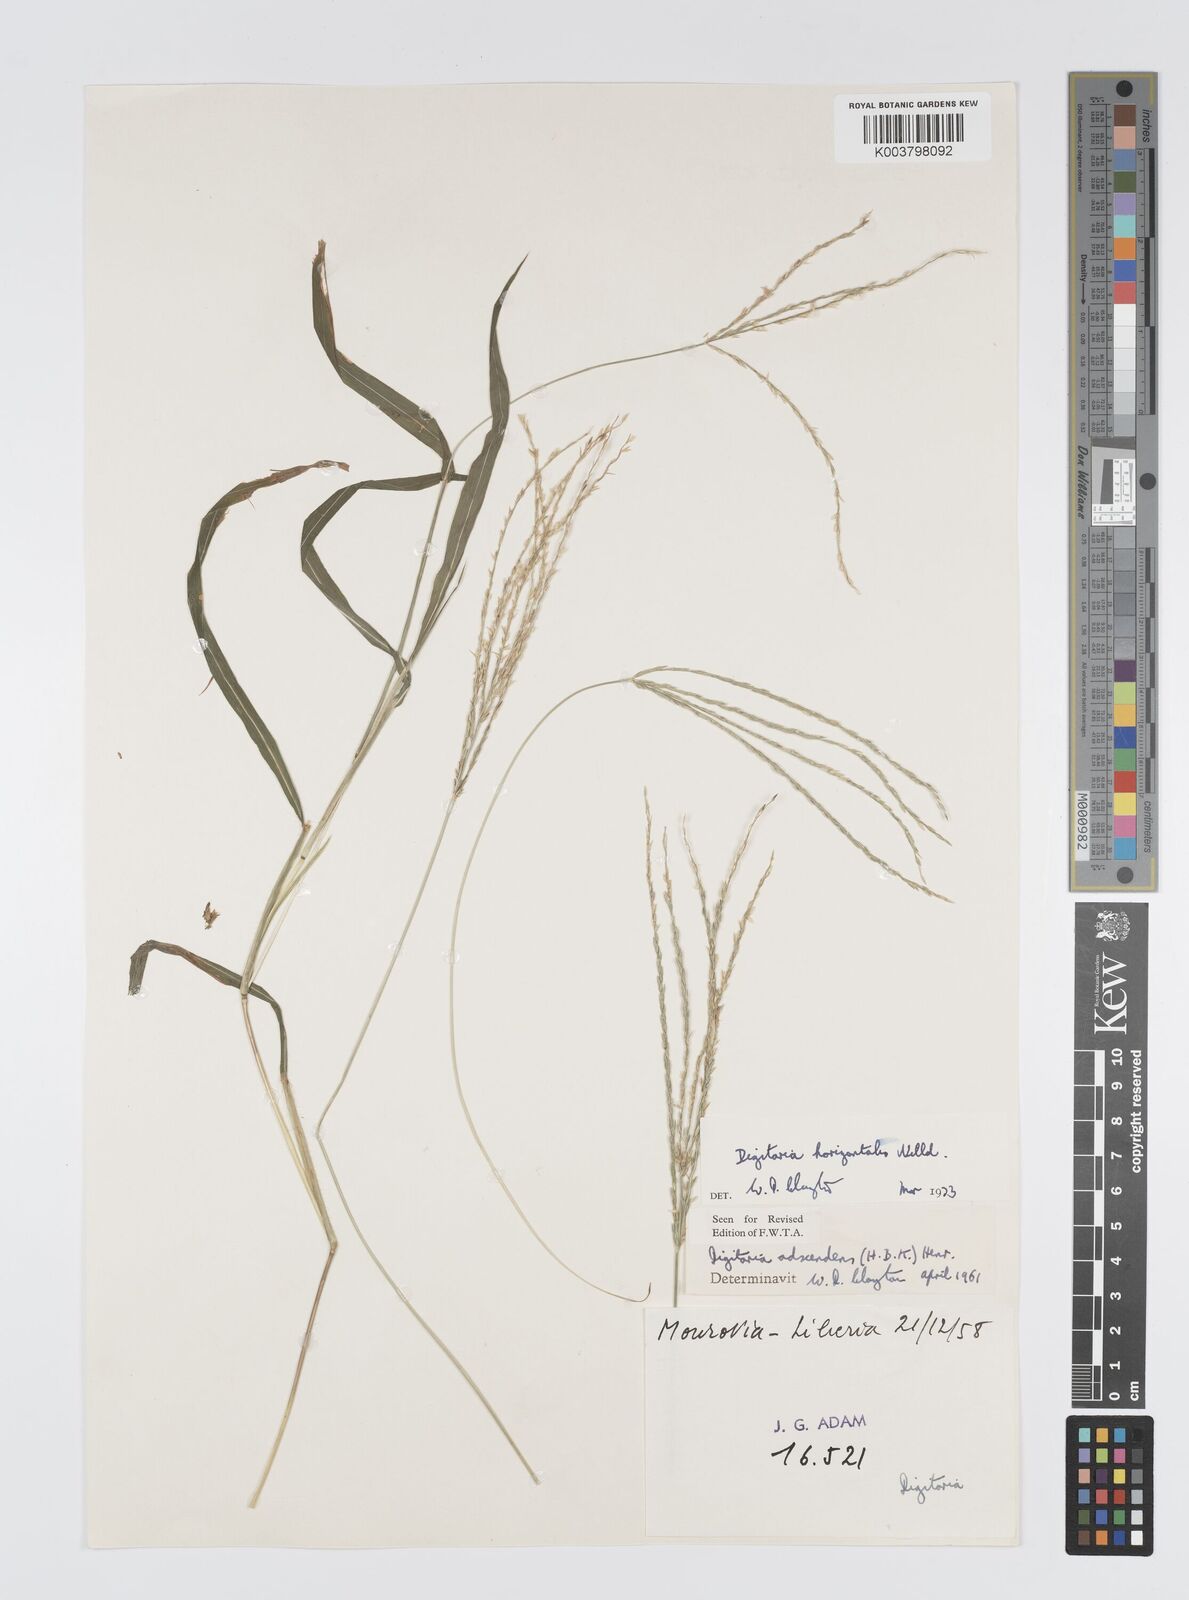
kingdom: Plantae
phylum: Tracheophyta
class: Liliopsida
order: Poales
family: Poaceae
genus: Digitaria
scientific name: Digitaria horizontalis
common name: Jamaican crabgrass
